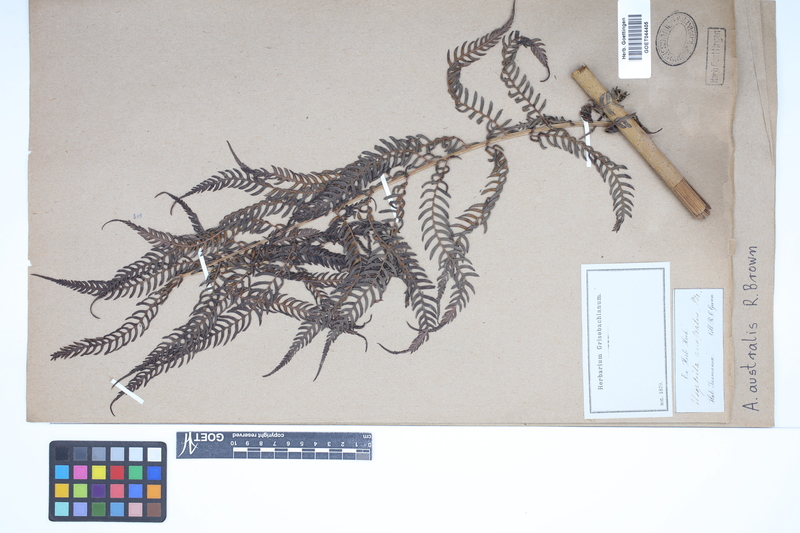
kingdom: Plantae
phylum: Tracheophyta
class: Polypodiopsida
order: Cyatheales
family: Cyatheaceae
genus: Alsophila
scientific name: Alsophila australis
